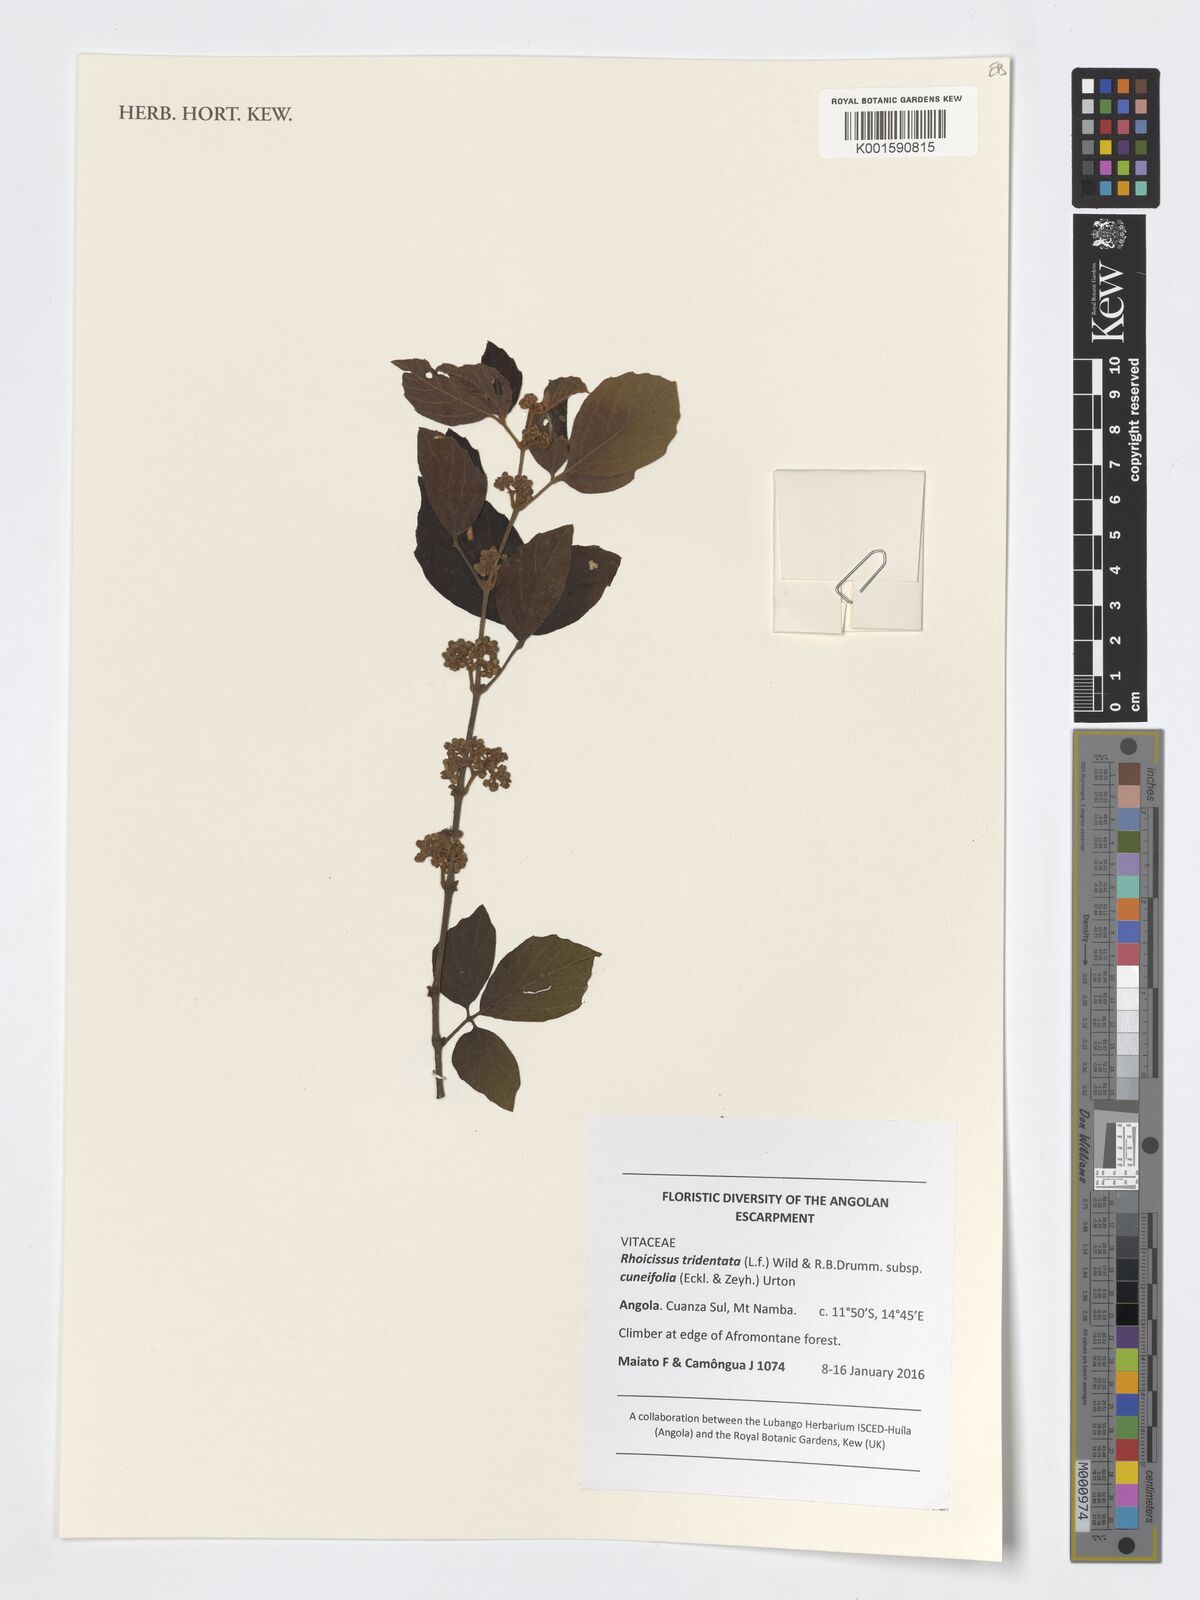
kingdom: Plantae
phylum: Tracheophyta
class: Magnoliopsida
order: Vitales
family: Vitaceae
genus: Rhoicissus
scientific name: Rhoicissus tridentata
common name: Common forest grape
